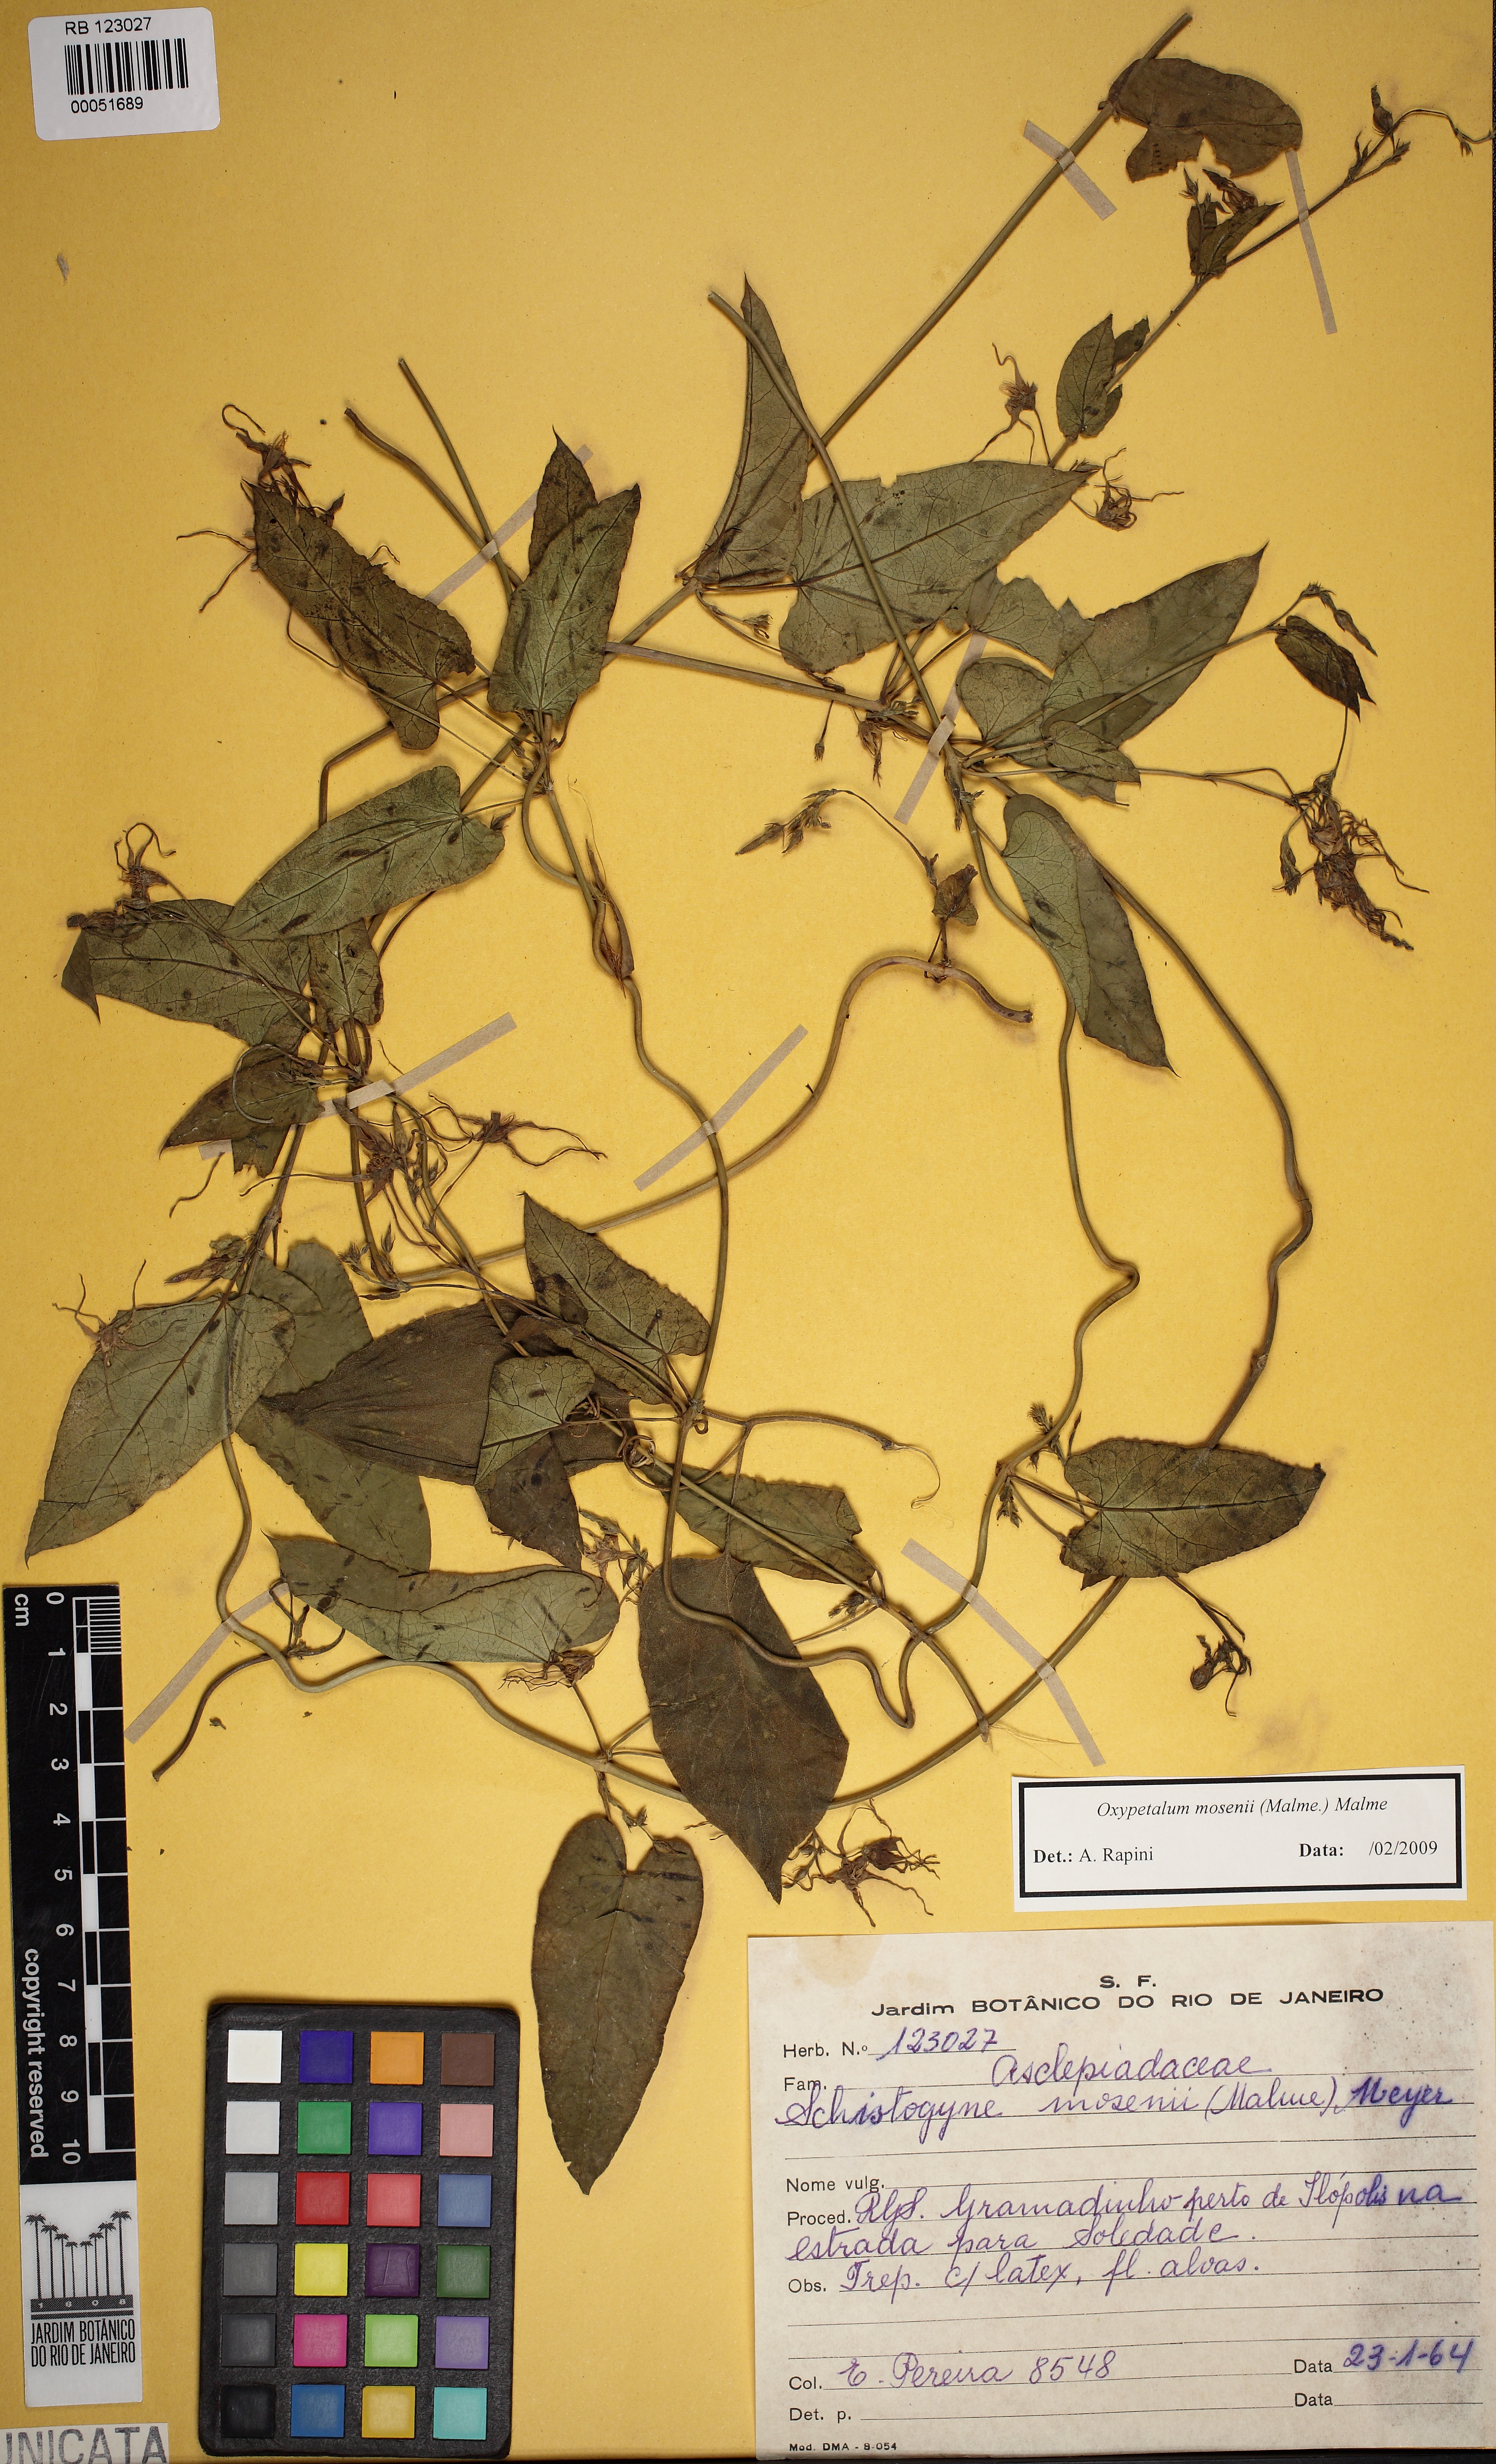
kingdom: Plantae
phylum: Tracheophyta
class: Magnoliopsida
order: Gentianales
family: Apocynaceae
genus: Oxypetalum
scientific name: Oxypetalum mosenii
